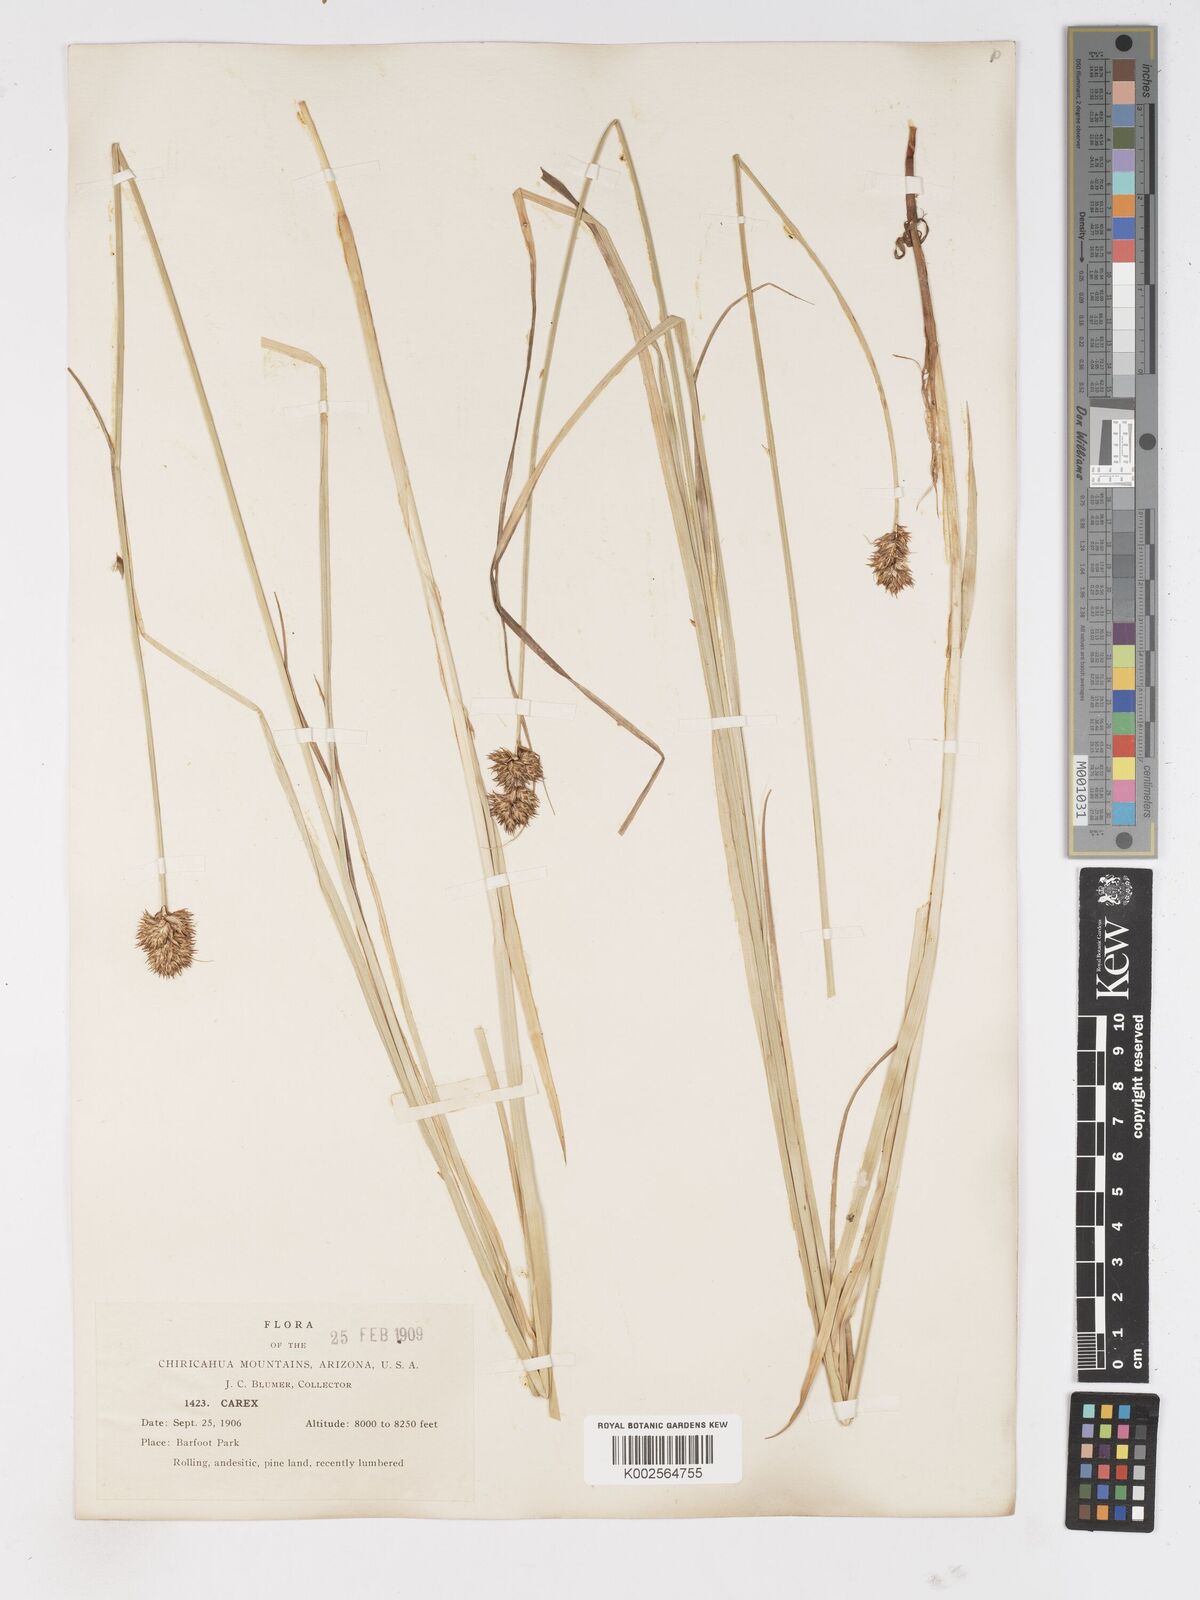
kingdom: Plantae
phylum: Tracheophyta
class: Liliopsida
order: Poales
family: Cyperaceae
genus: Carex
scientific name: Carex
